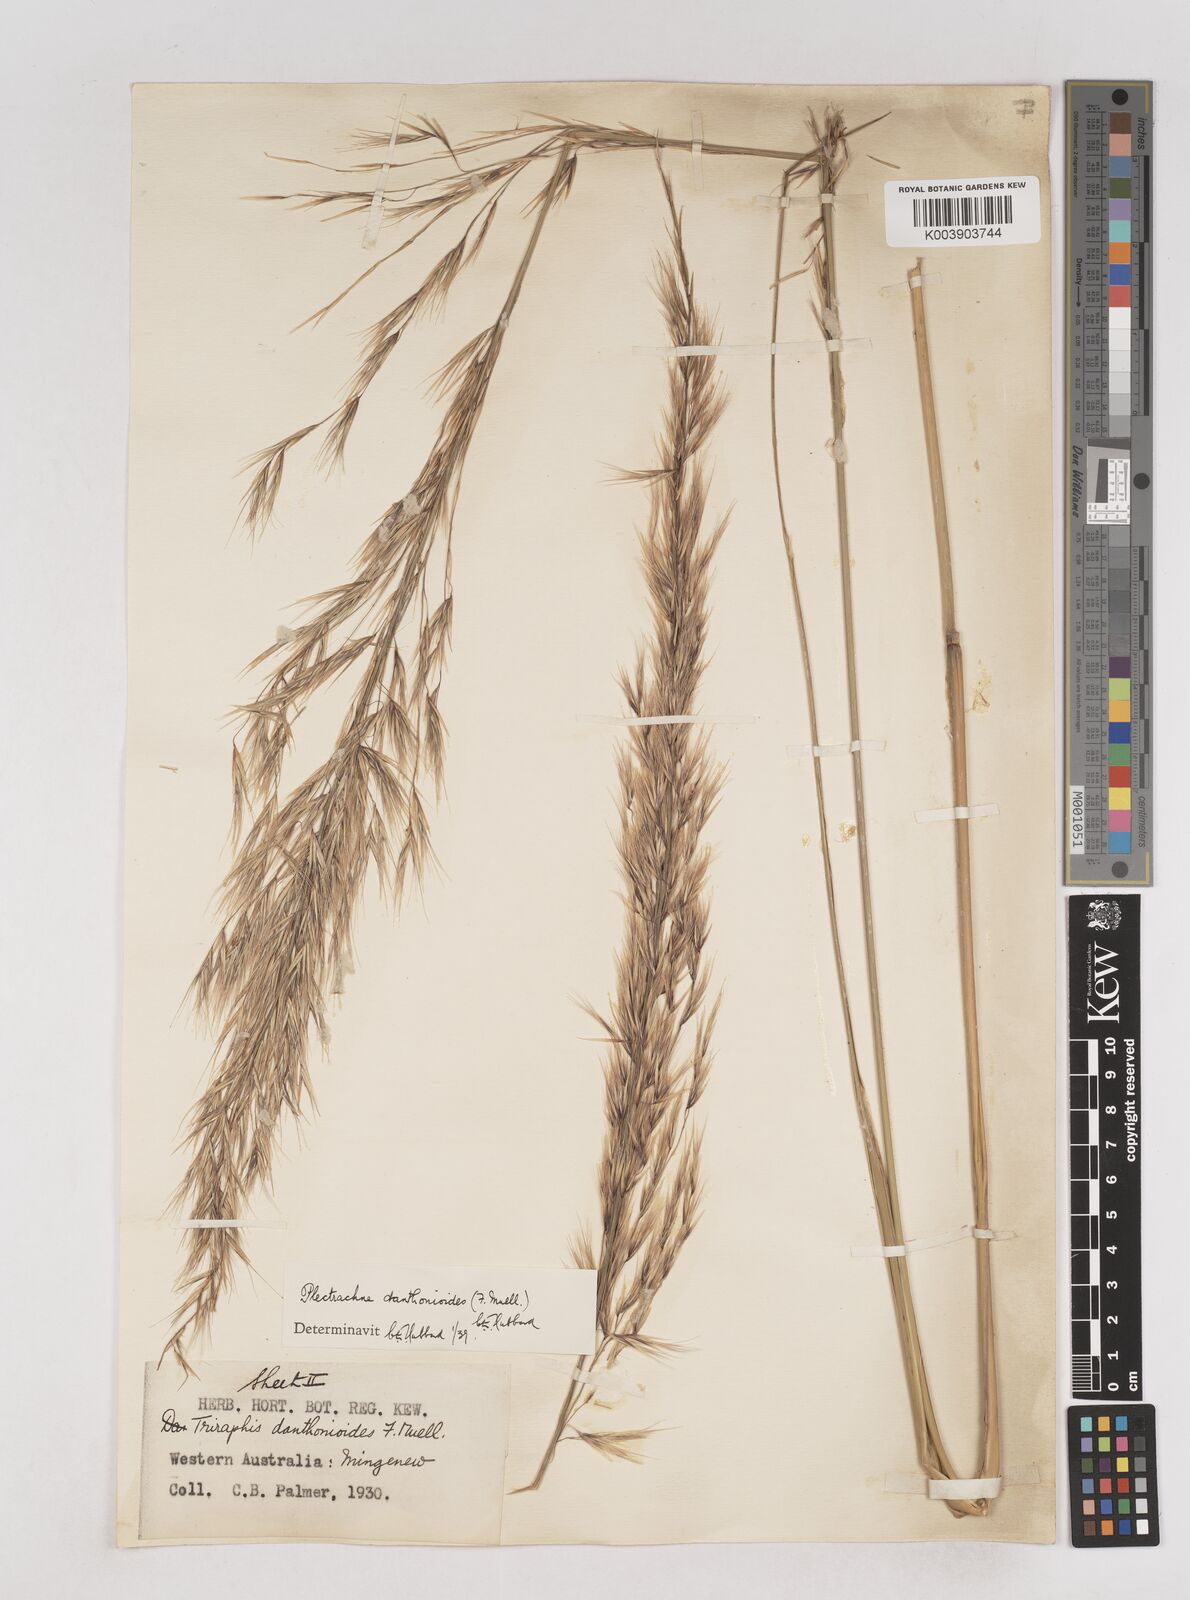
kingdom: Plantae
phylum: Tracheophyta
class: Liliopsida
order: Poales
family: Poaceae
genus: Triodia
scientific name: Triodia danthonioides
